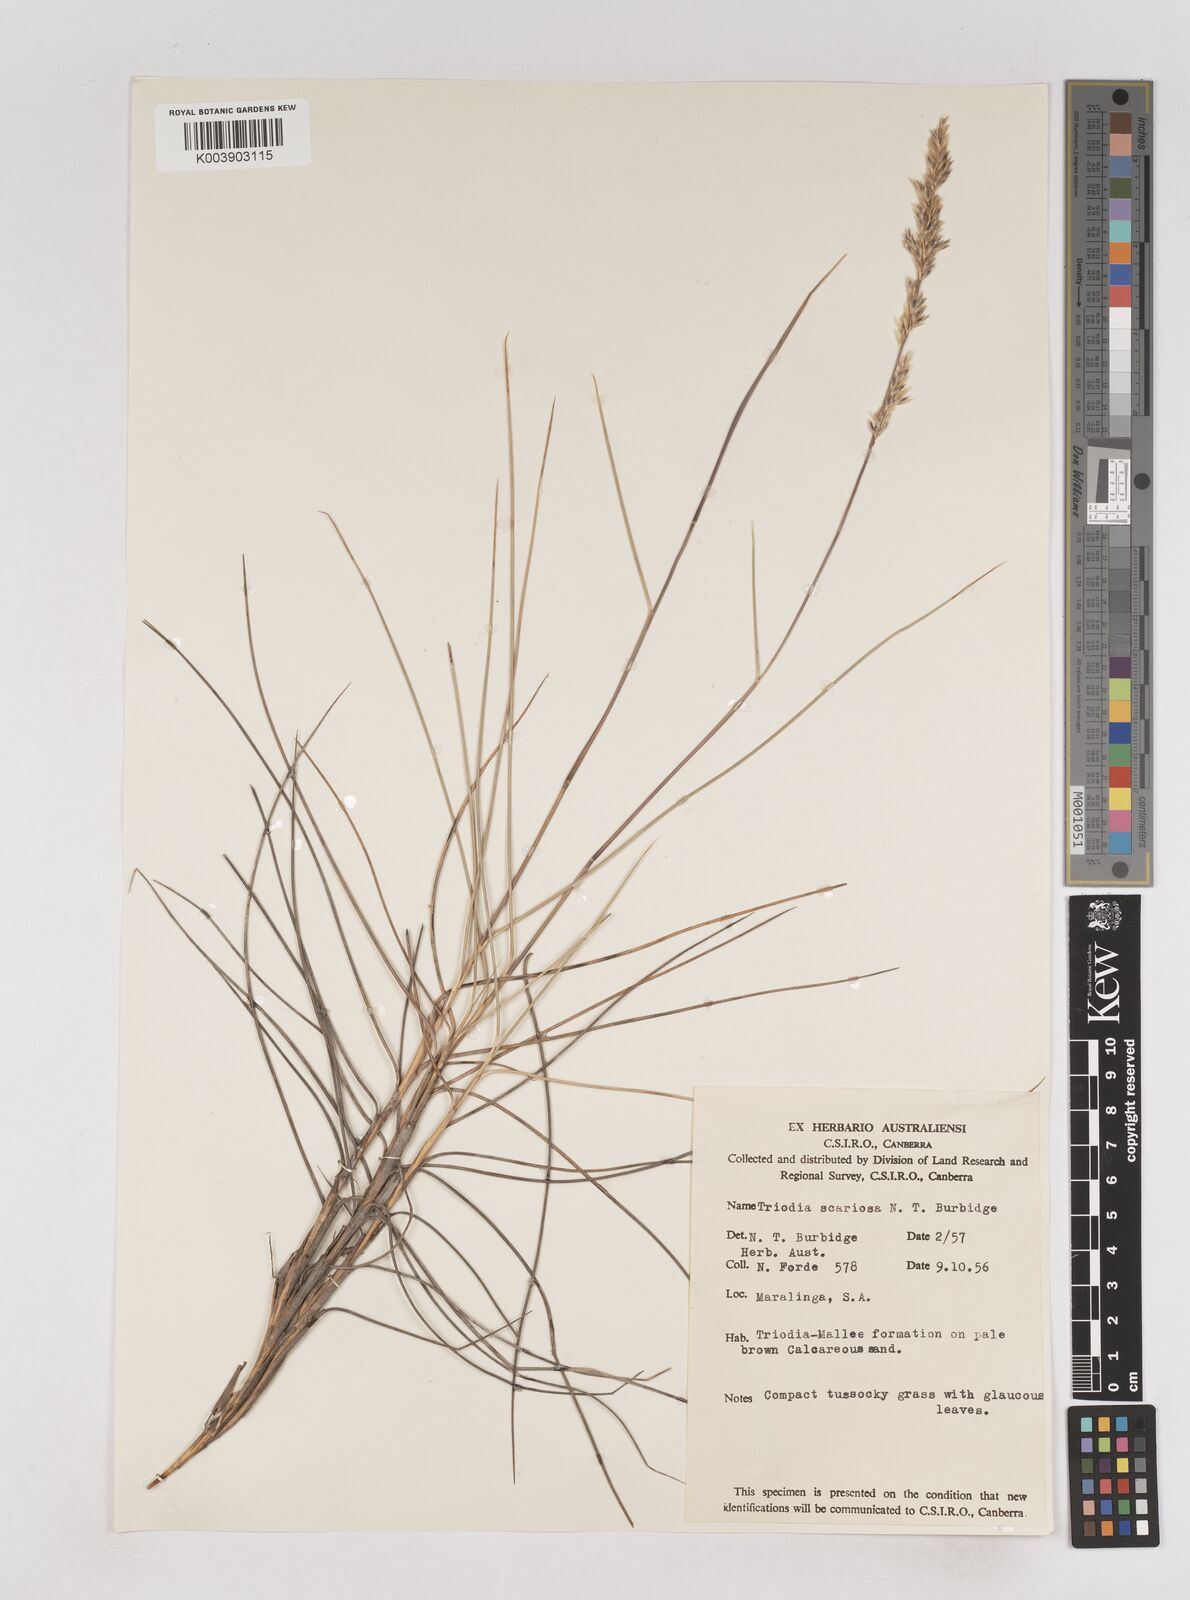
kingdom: Plantae
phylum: Tracheophyta
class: Liliopsida
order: Poales
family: Poaceae
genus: Triodia
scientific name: Triodia scariosa
